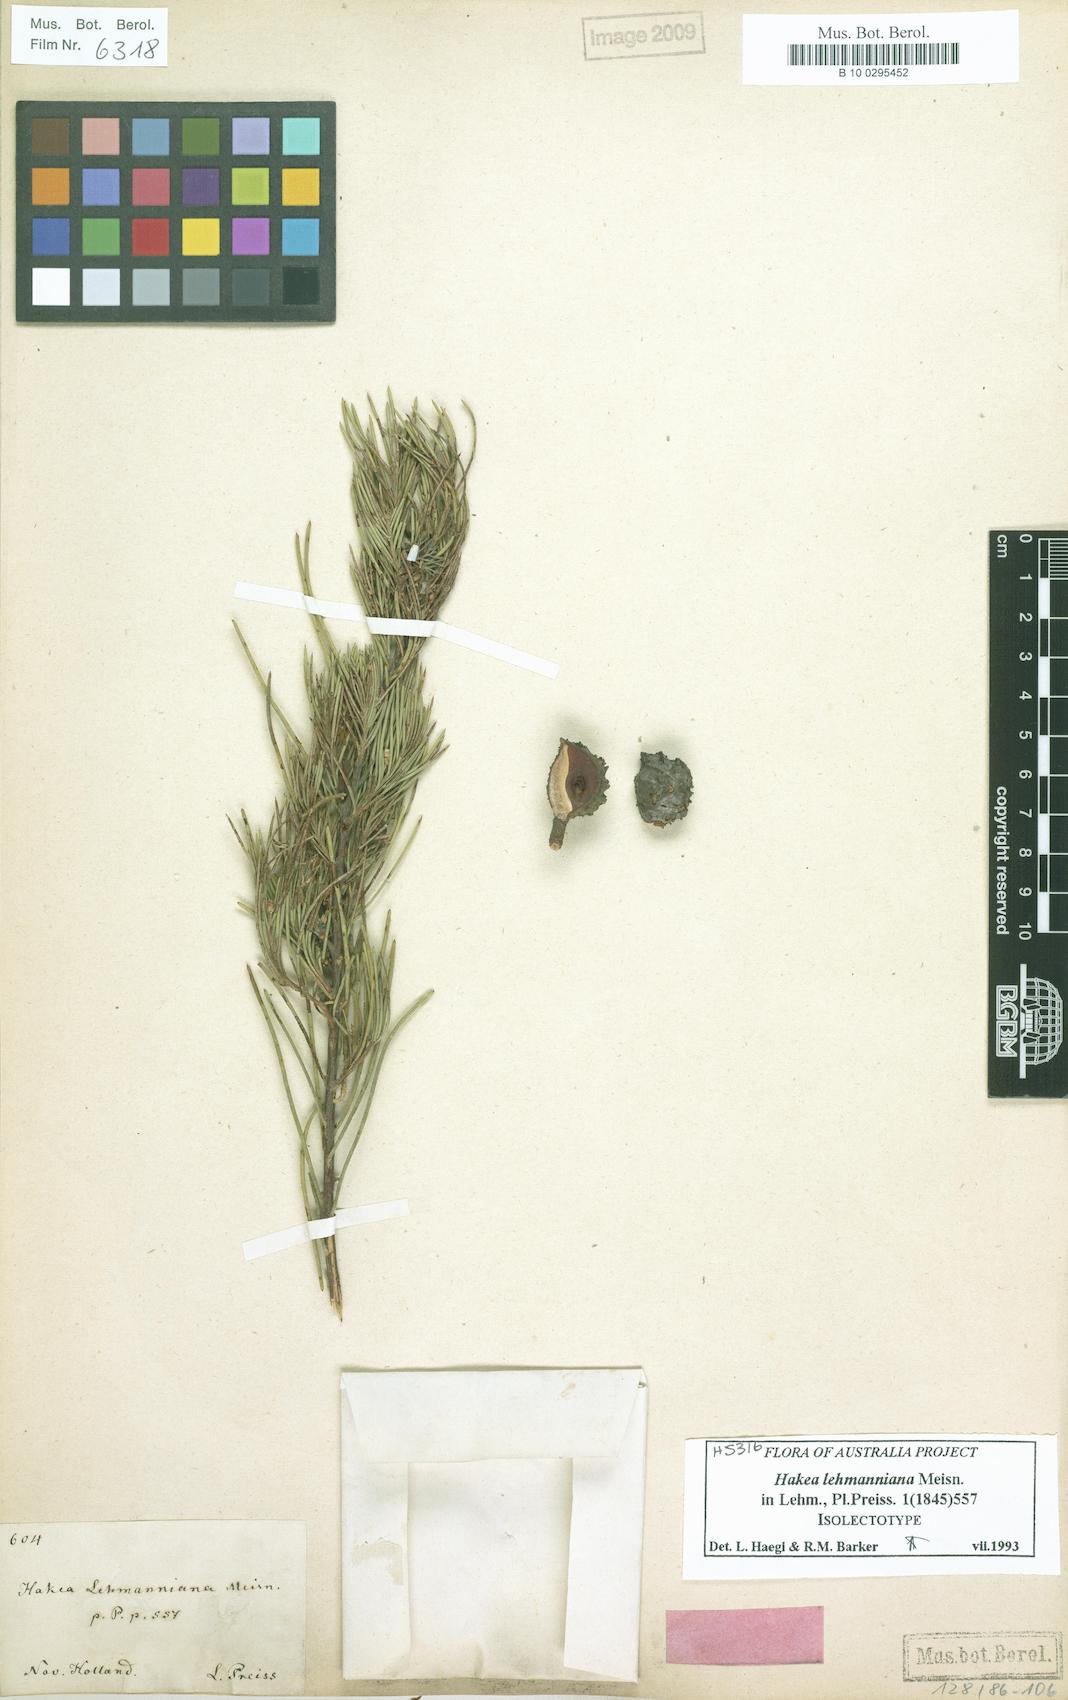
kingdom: Plantae
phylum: Tracheophyta
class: Magnoliopsida
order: Proteales
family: Proteaceae
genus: Hakea
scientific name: Hakea lehmanniana
